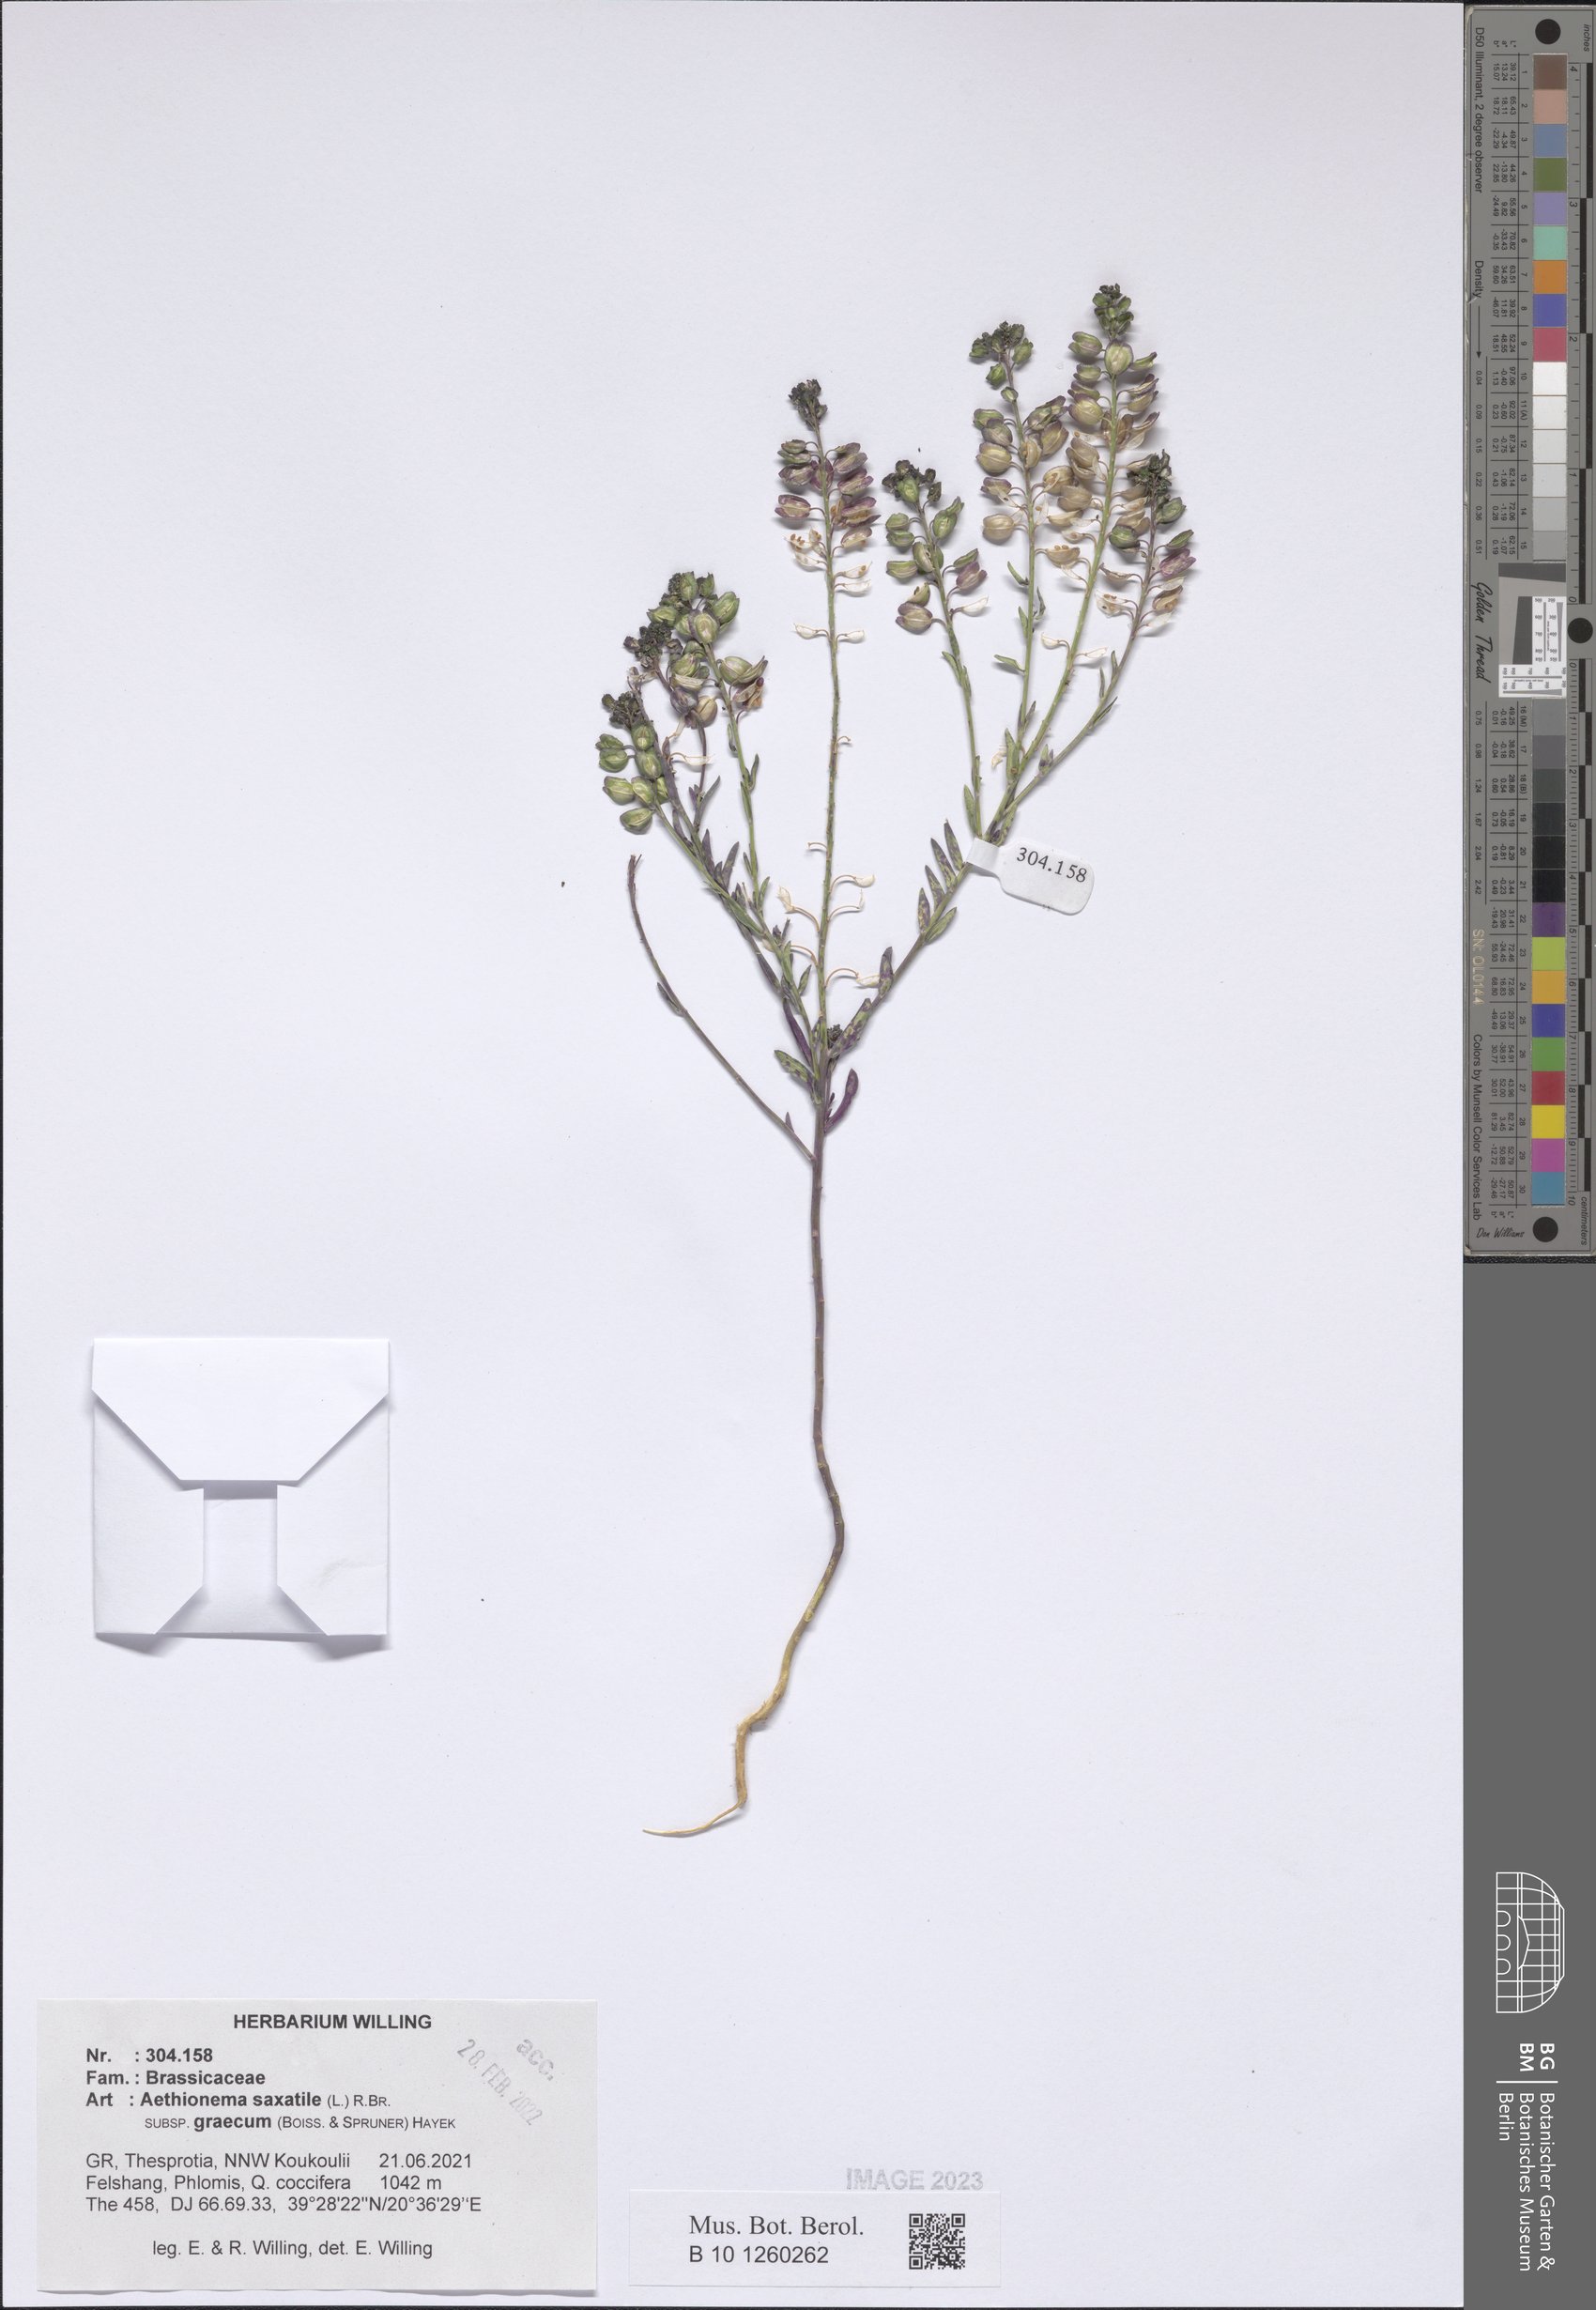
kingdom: Plantae
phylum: Tracheophyta
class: Magnoliopsida
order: Brassicales
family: Brassicaceae
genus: Aethionema
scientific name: Aethionema saxatile
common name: Burnt candytuft
